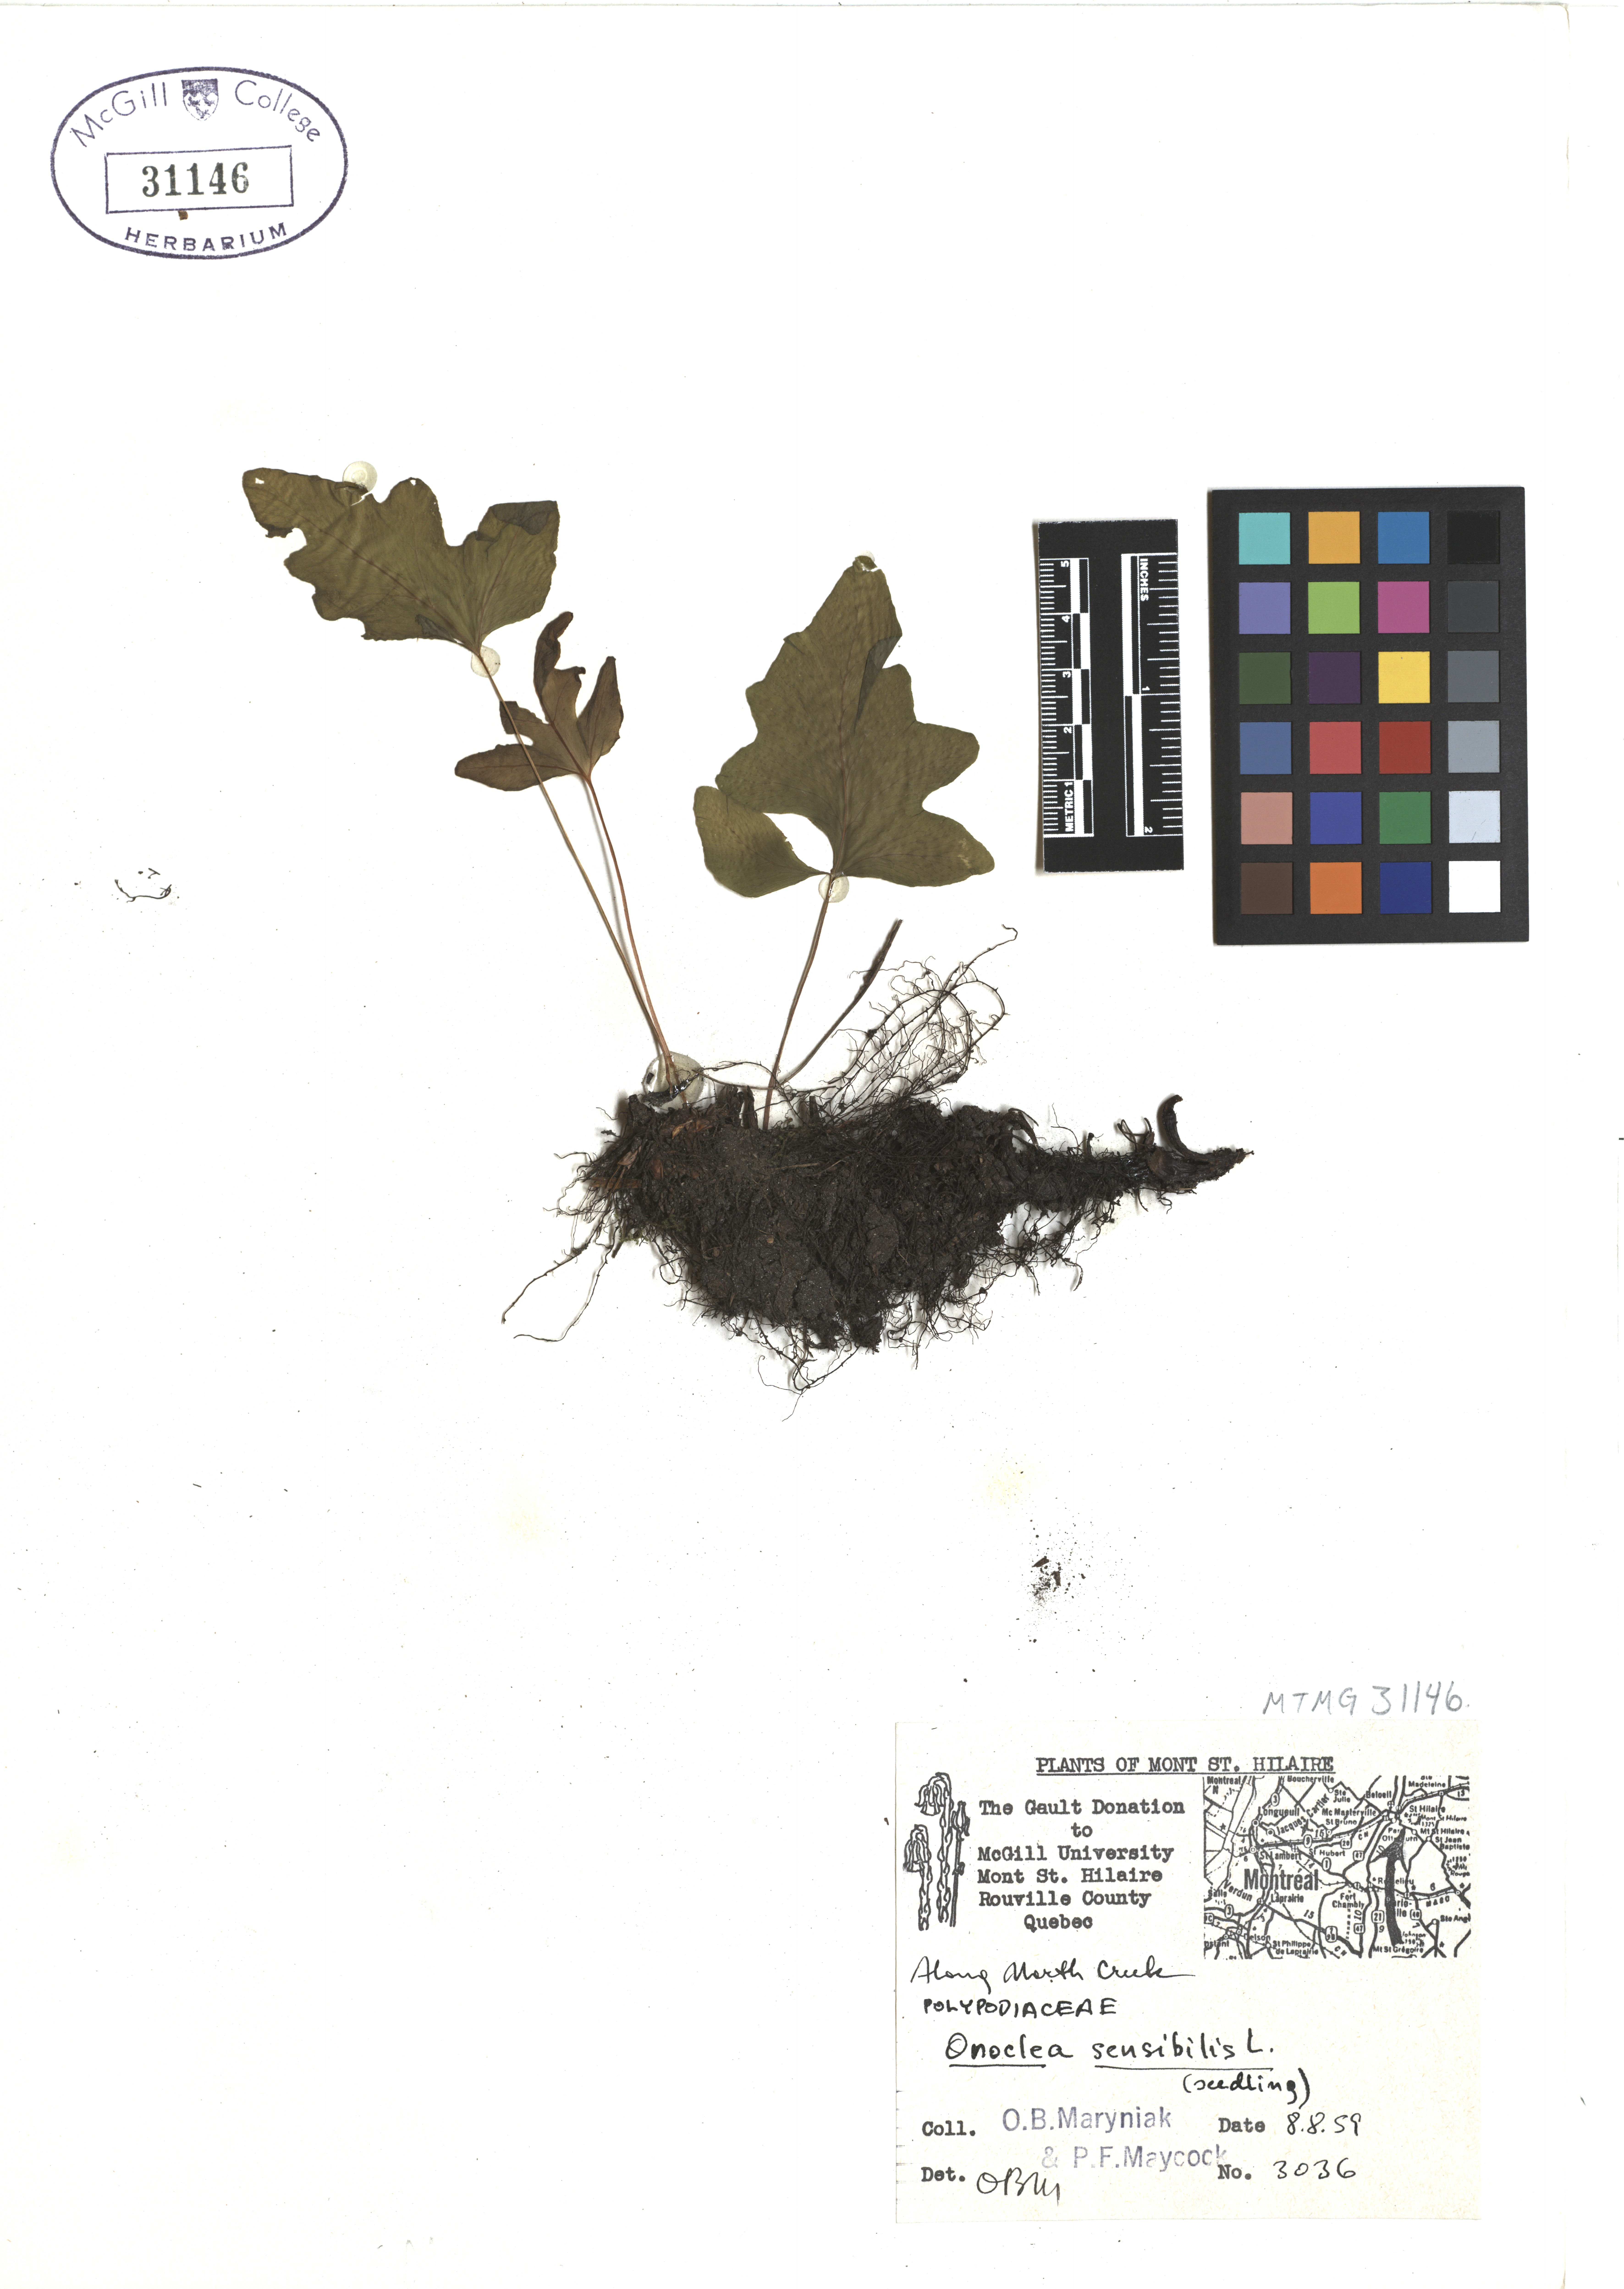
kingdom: Plantae
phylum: Tracheophyta
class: Polypodiopsida
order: Polypodiales
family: Onocleaceae
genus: Onoclea
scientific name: Onoclea sensibilis
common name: Sensitive fern
